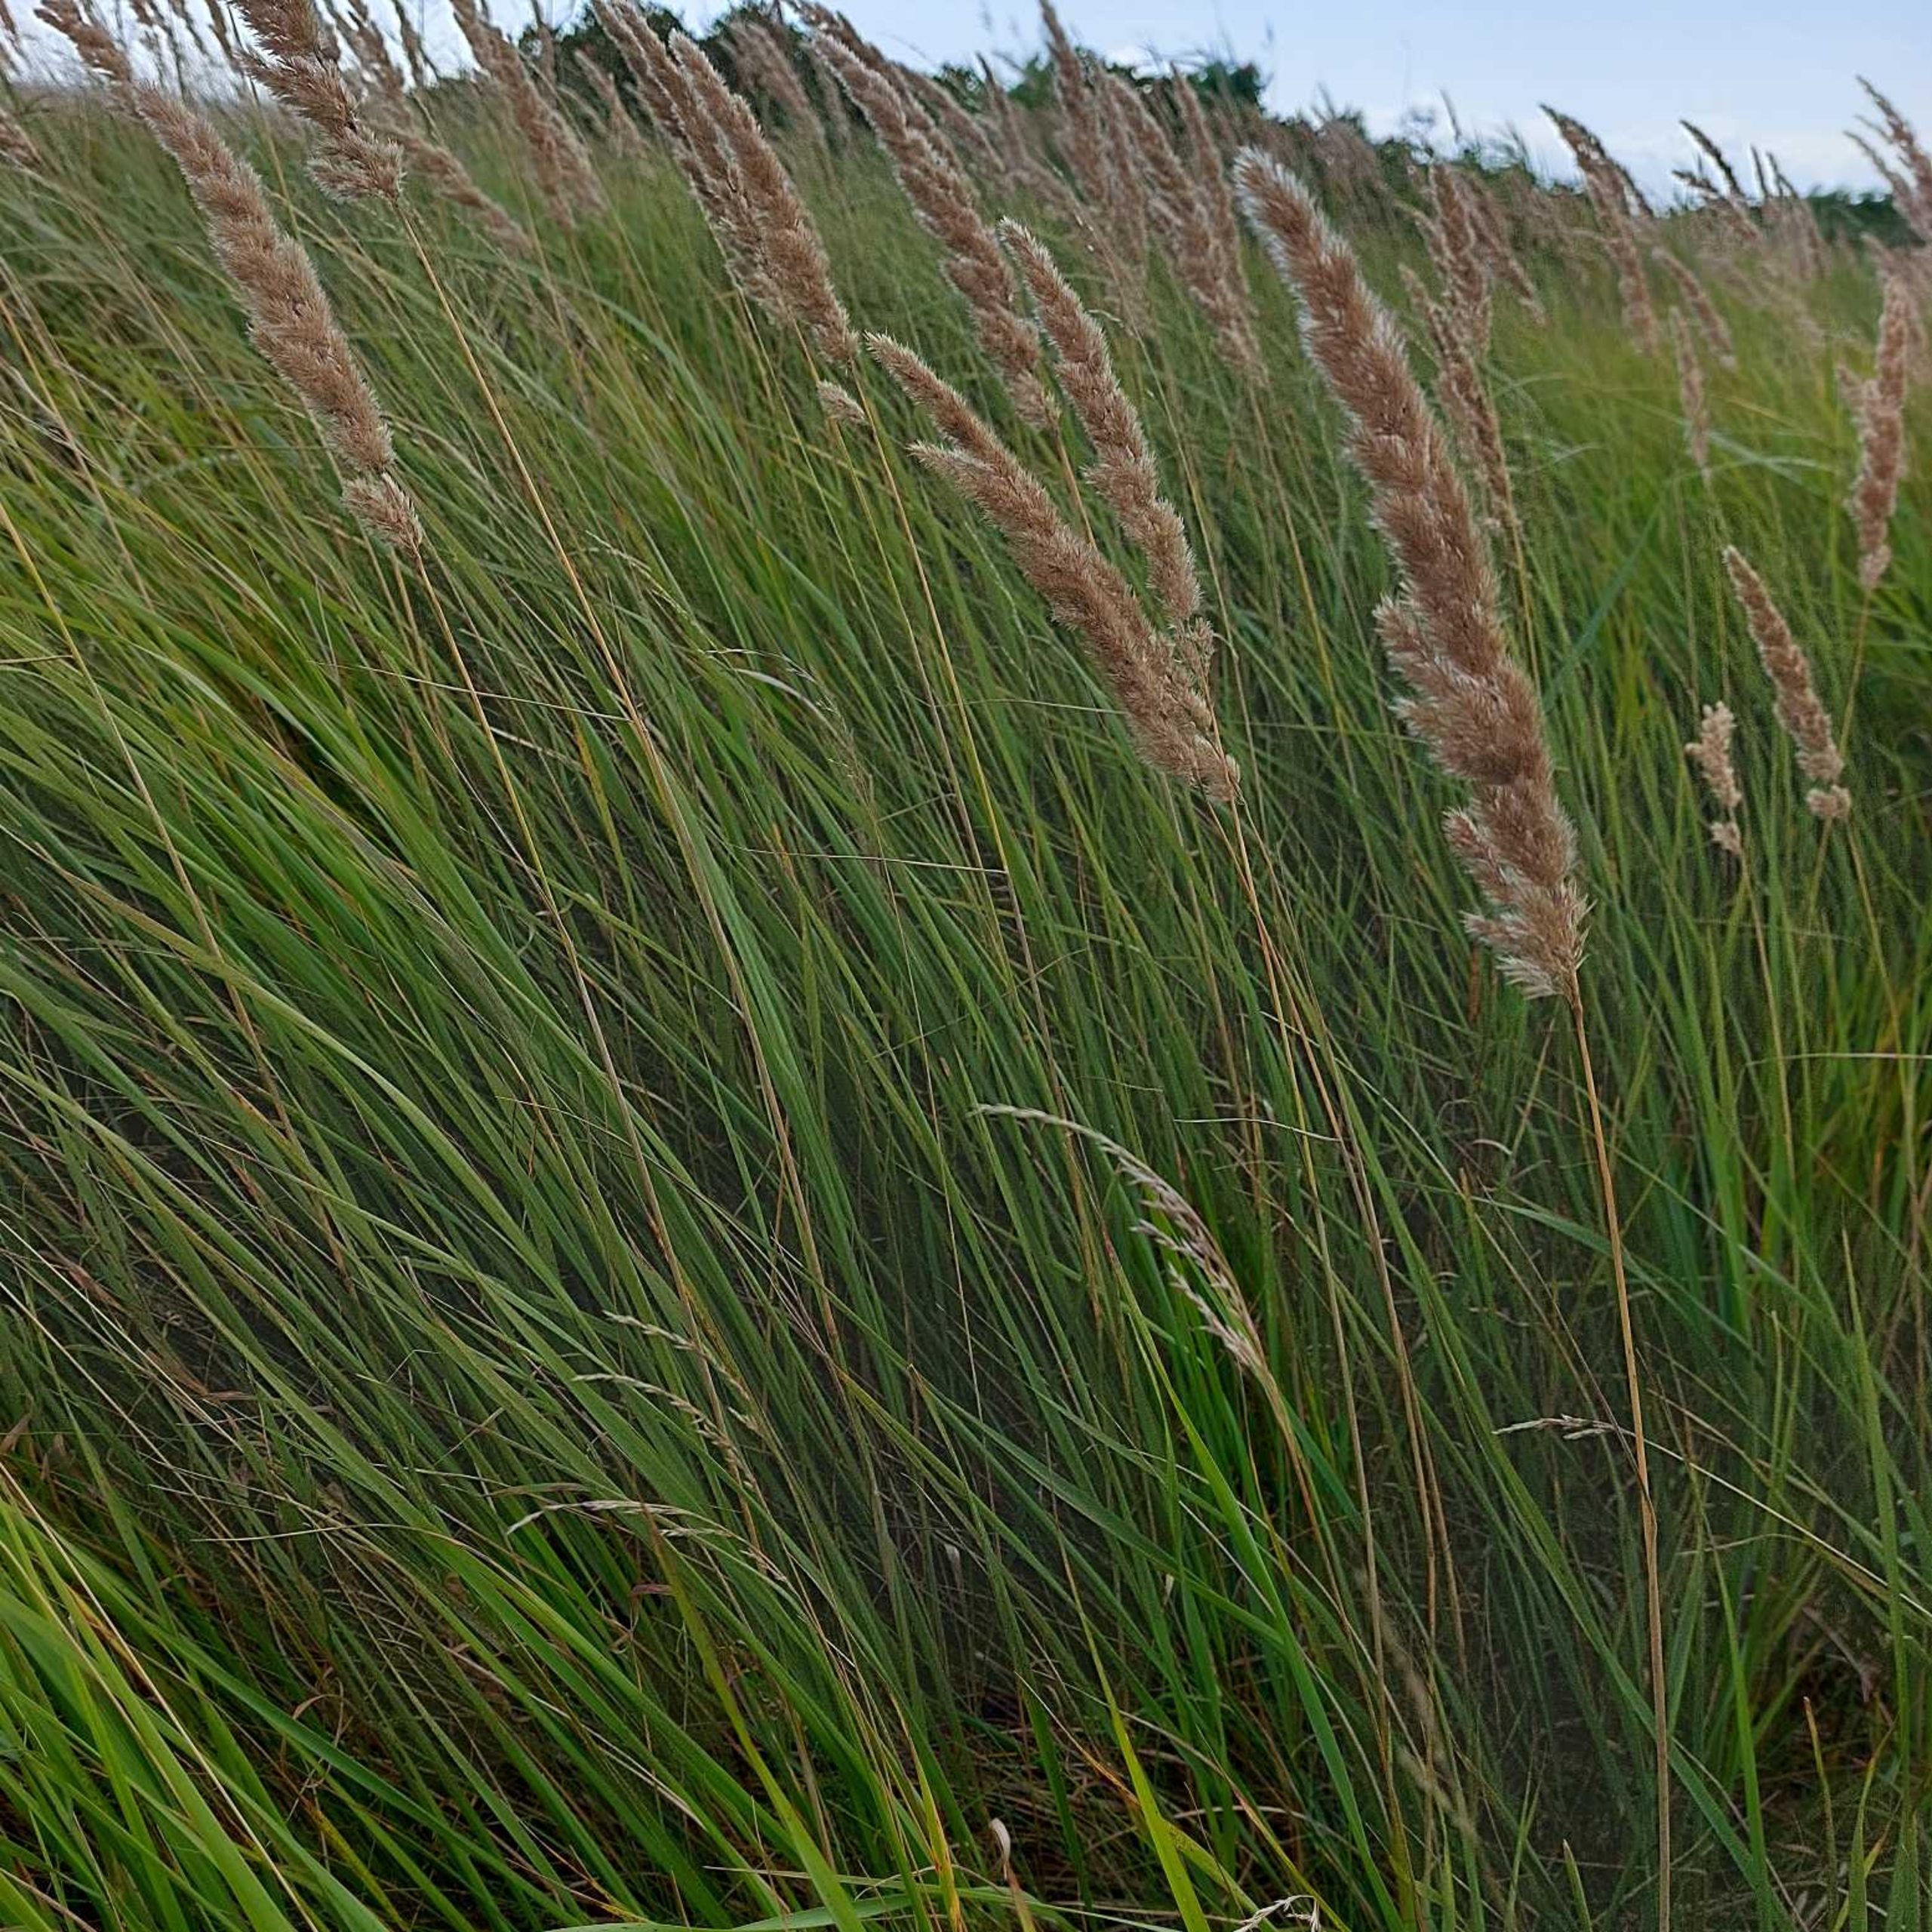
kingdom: Plantae
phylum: Tracheophyta
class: Liliopsida
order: Poales
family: Poaceae
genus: Calamagrostis
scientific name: Calamagrostis epigejos
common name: Bjerg-rørhvene
